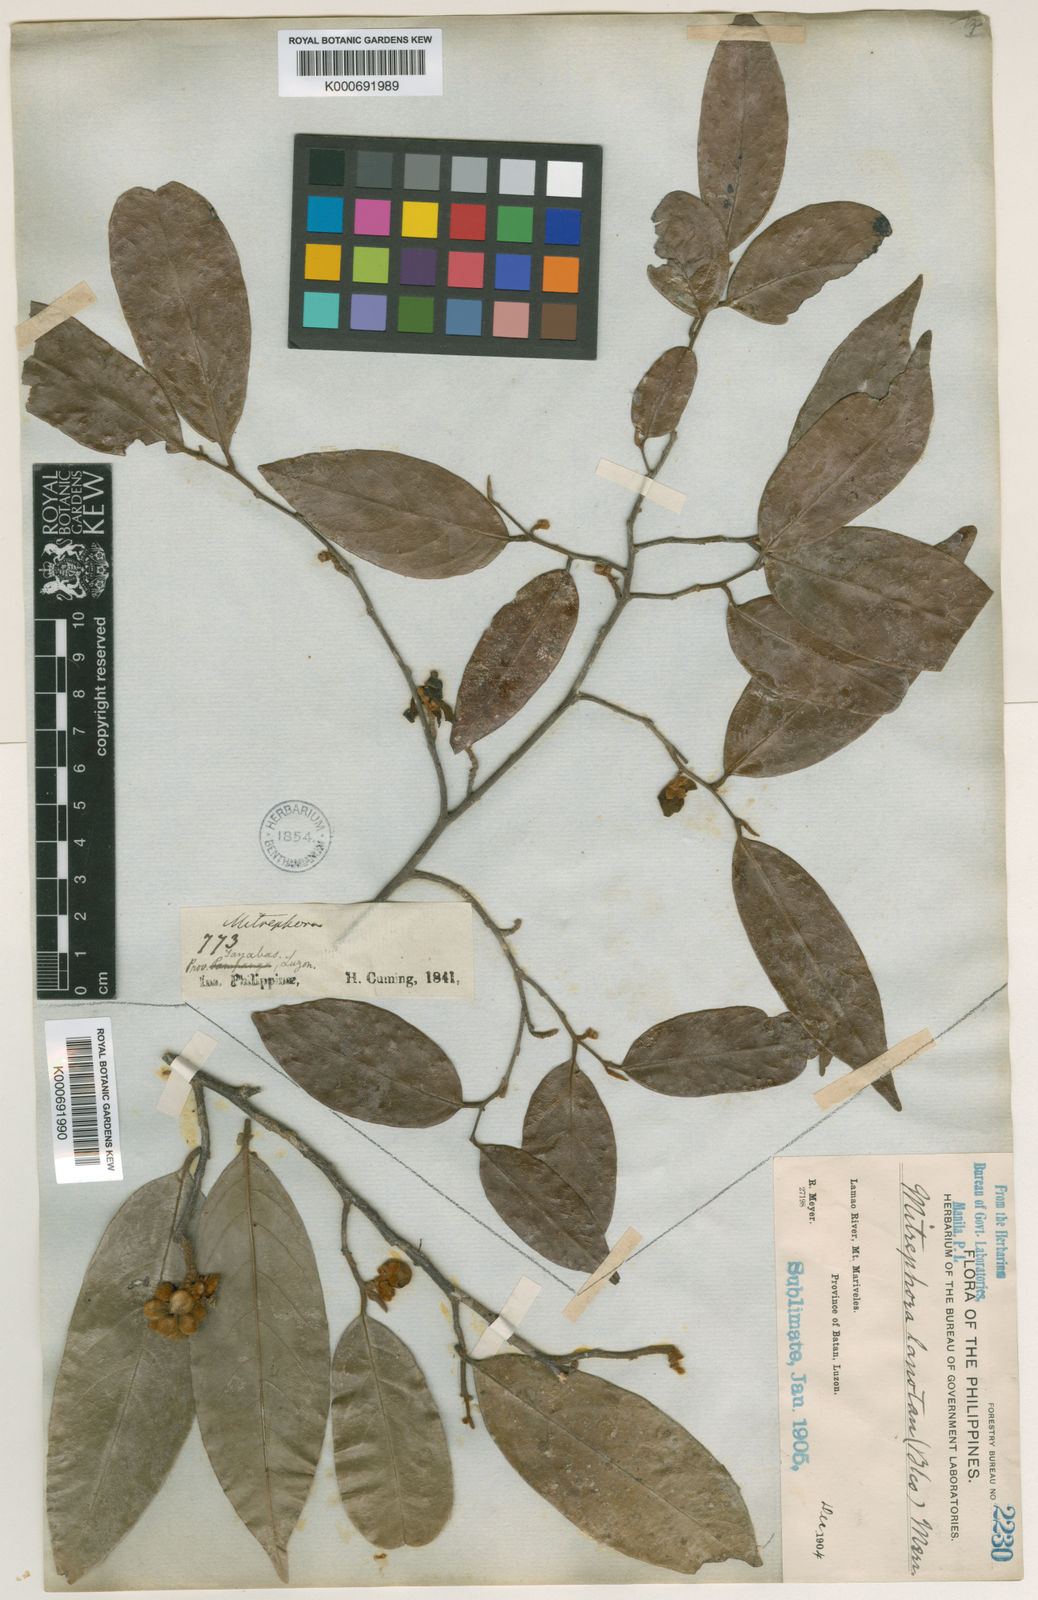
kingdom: Plantae
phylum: Tracheophyta
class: Magnoliopsida
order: Magnoliales
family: Annonaceae
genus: Mitrephora
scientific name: Mitrephora lanotan
